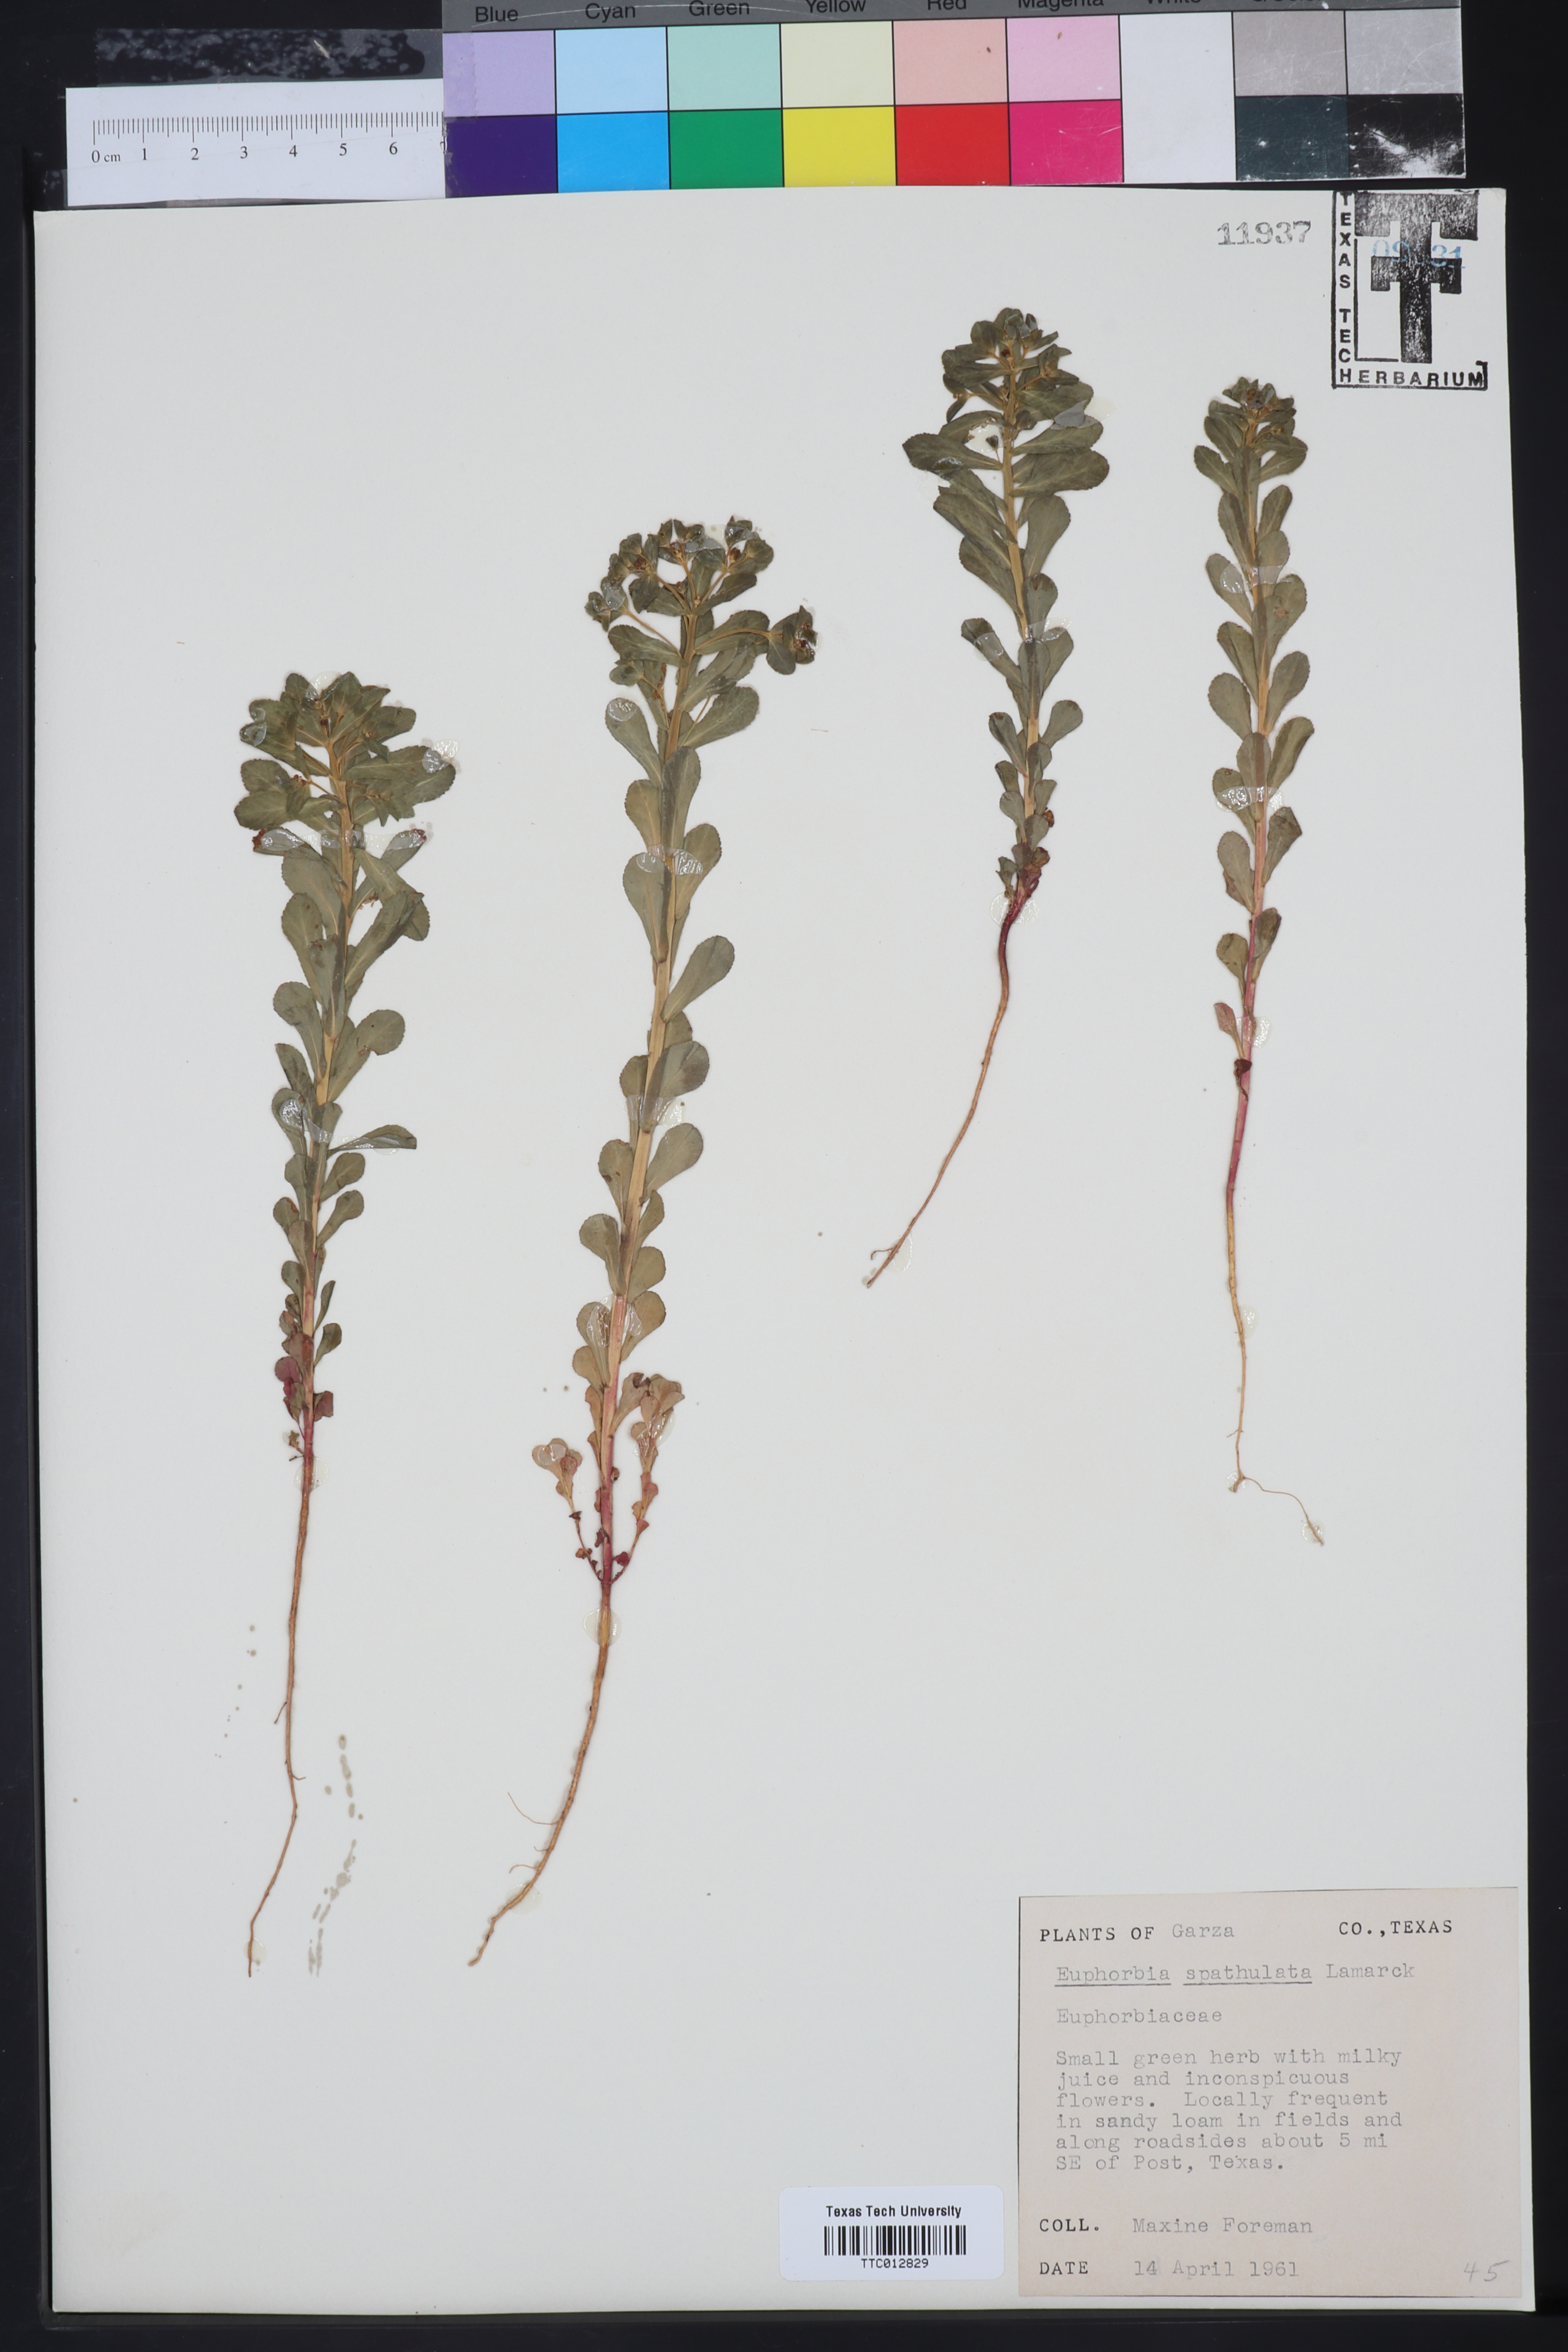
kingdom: Plantae
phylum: Tracheophyta
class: Magnoliopsida
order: Malpighiales
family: Euphorbiaceae
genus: Euphorbia
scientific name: Euphorbia spathulata
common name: Blunt spurge
